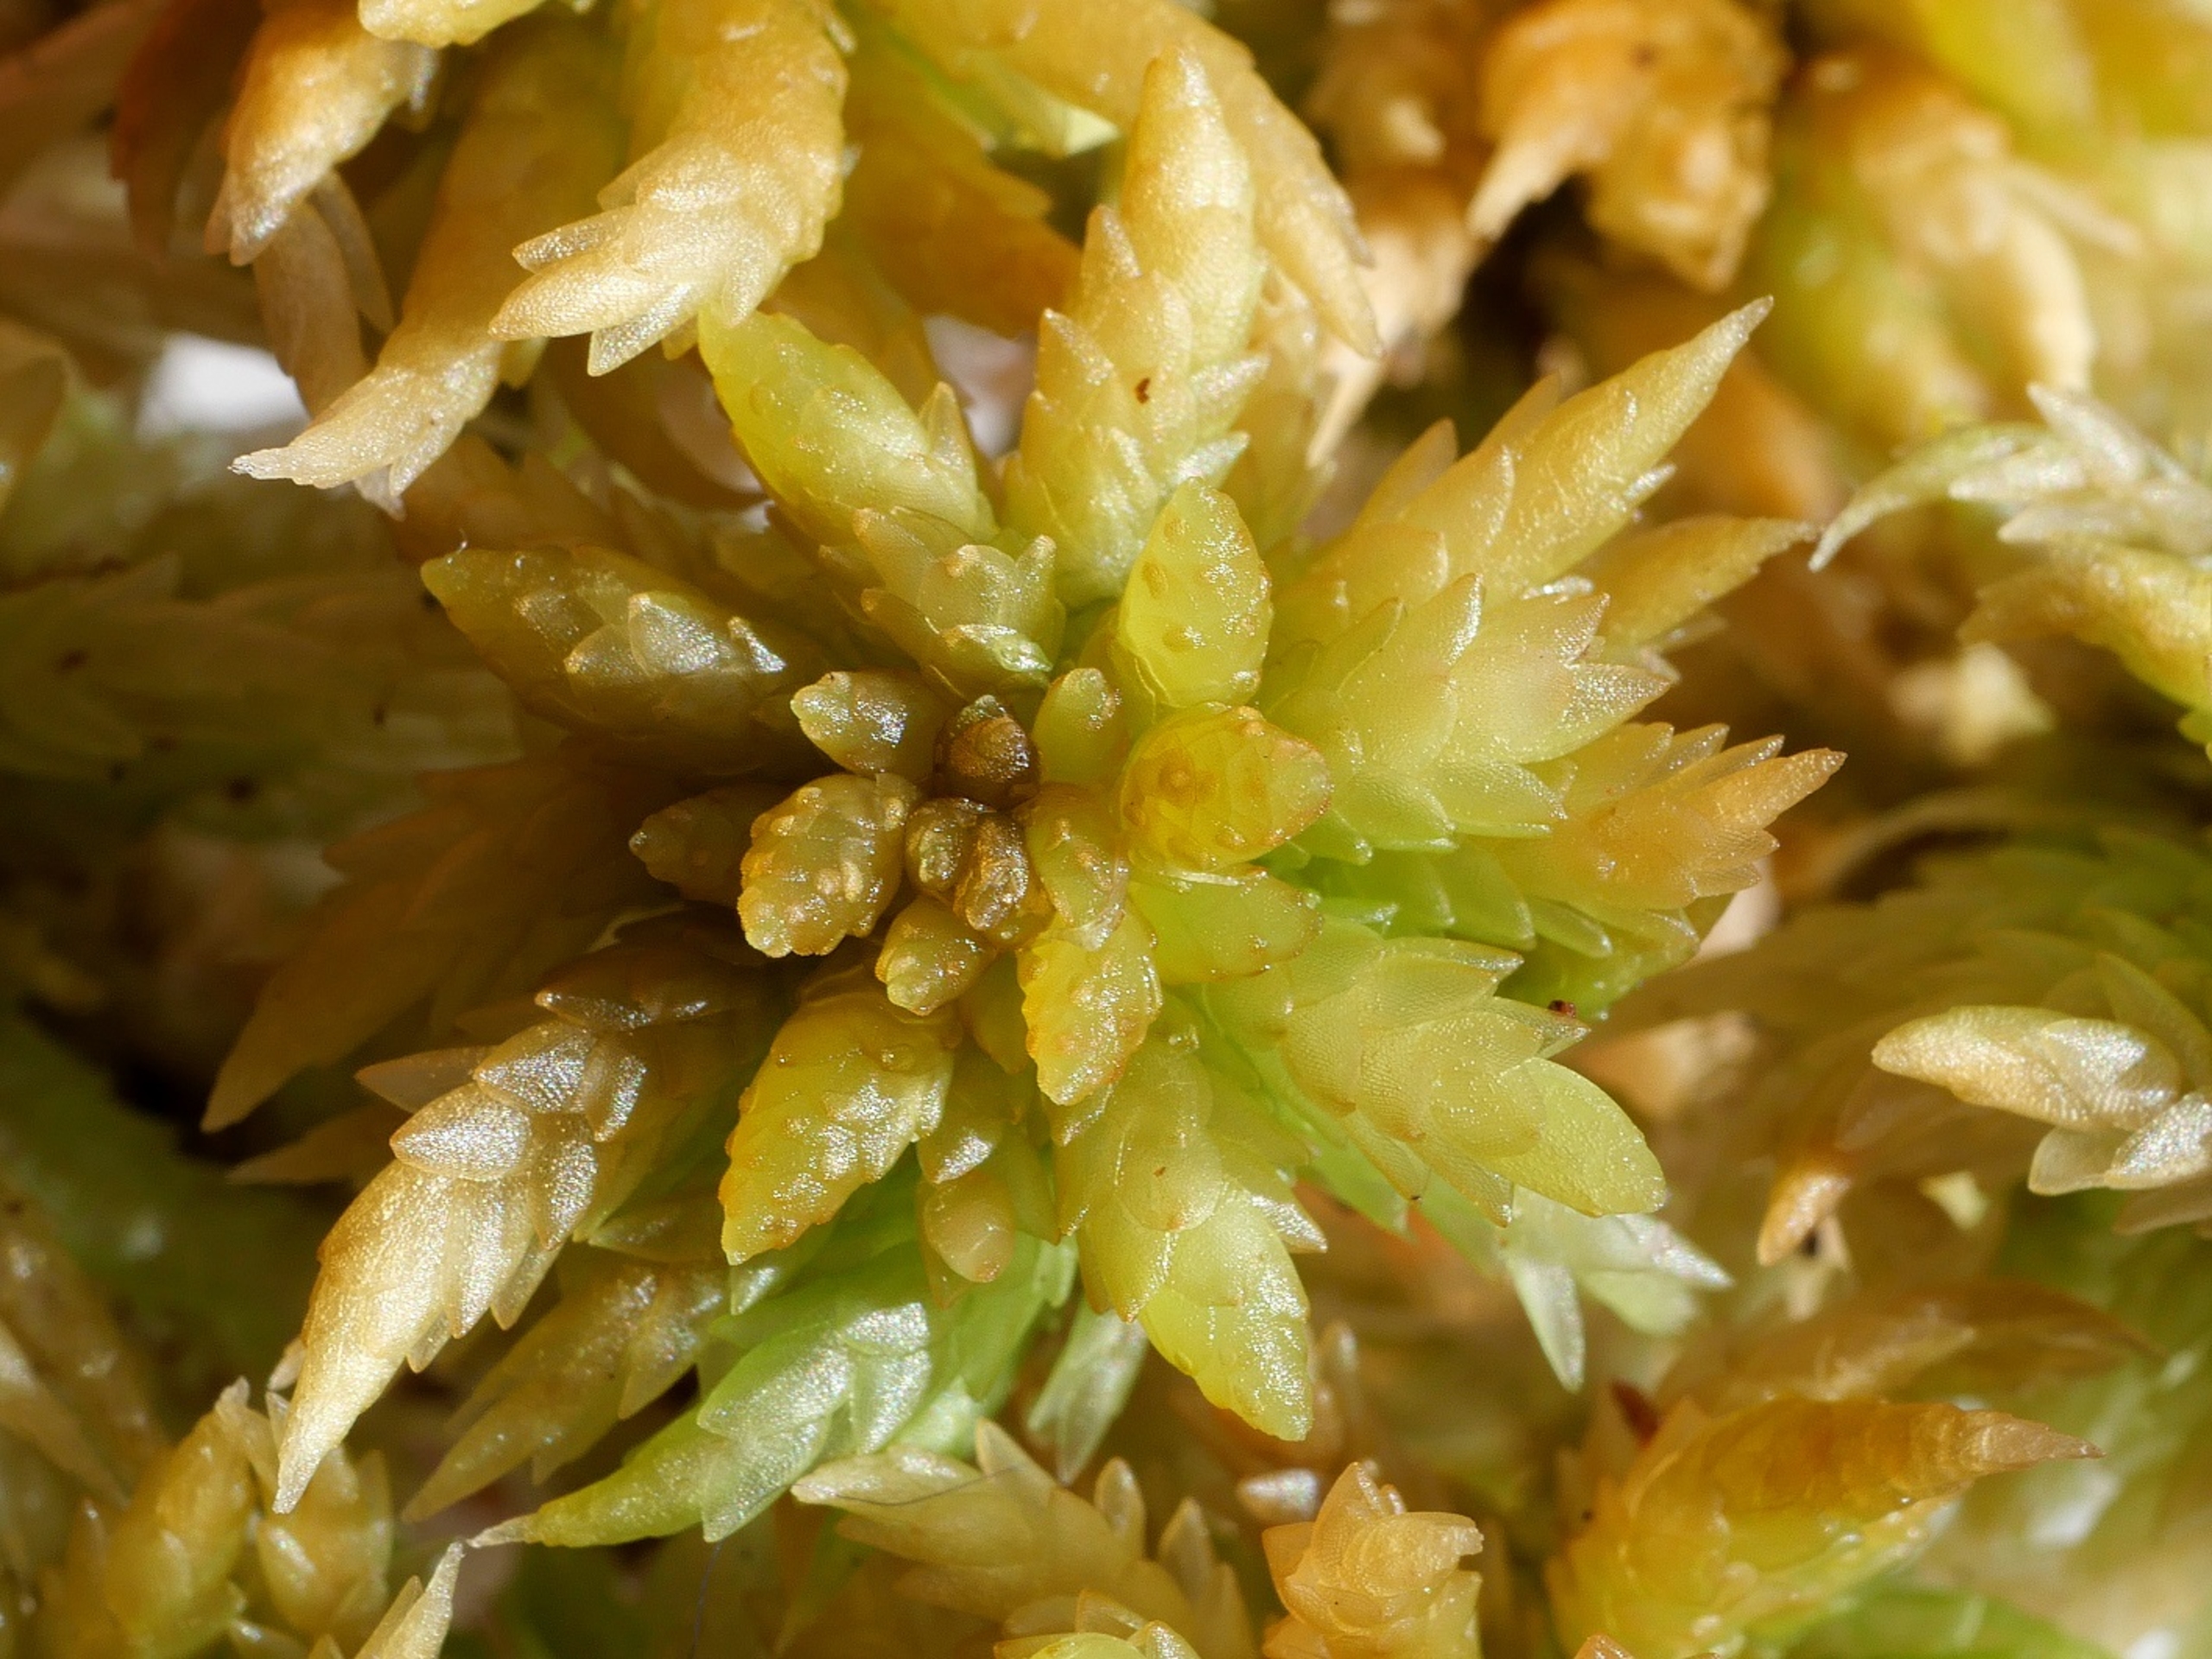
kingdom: Plantae
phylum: Bryophyta
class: Sphagnopsida
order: Sphagnales
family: Sphagnaceae
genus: Sphagnum
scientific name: Sphagnum papillosum
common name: Sod-tørvemos
